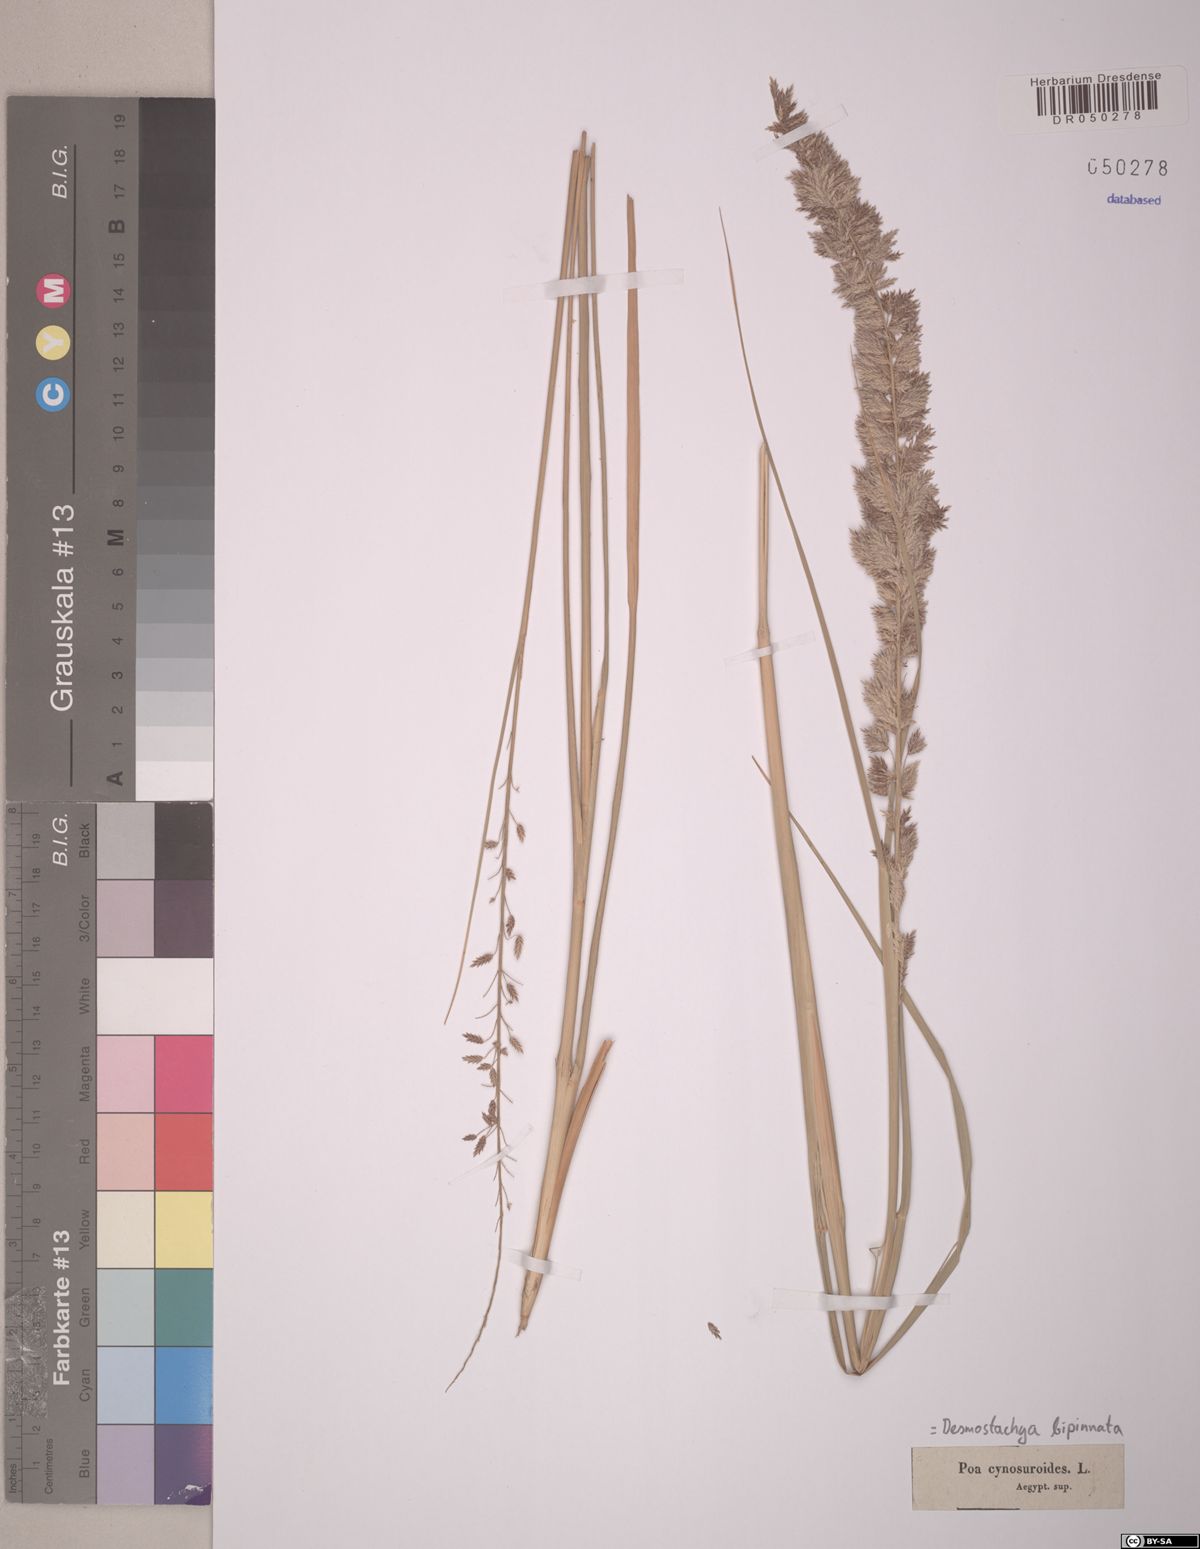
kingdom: Plantae
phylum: Tracheophyta
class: Liliopsida
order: Poales
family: Poaceae
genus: Desmostachya
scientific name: Desmostachya bipinnata
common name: Crowfoot grass
